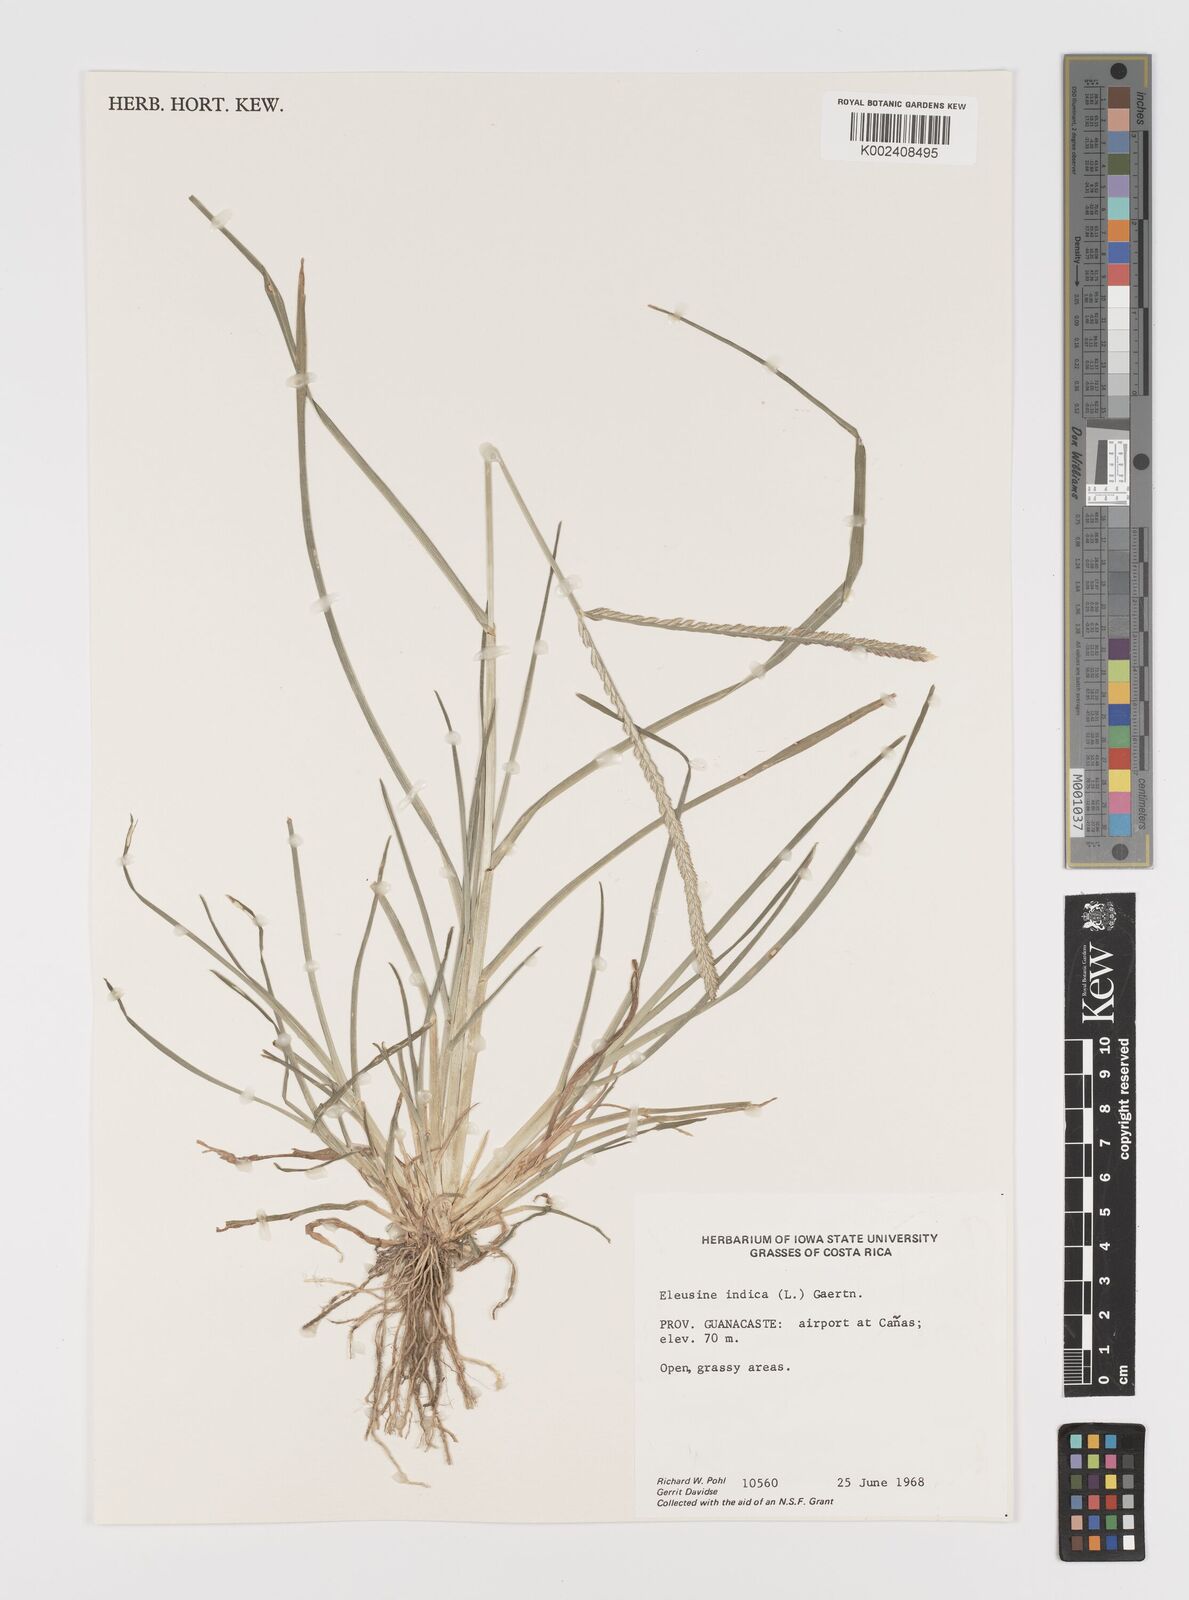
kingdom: Plantae
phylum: Tracheophyta
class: Liliopsida
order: Poales
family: Poaceae
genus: Eleusine
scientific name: Eleusine indica
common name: Yard-grass
